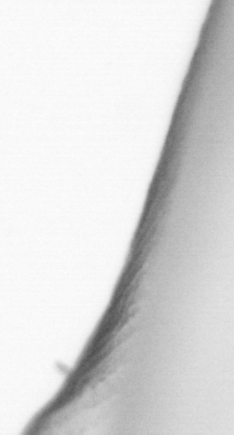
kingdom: Animalia
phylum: Chordata
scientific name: Chordata
